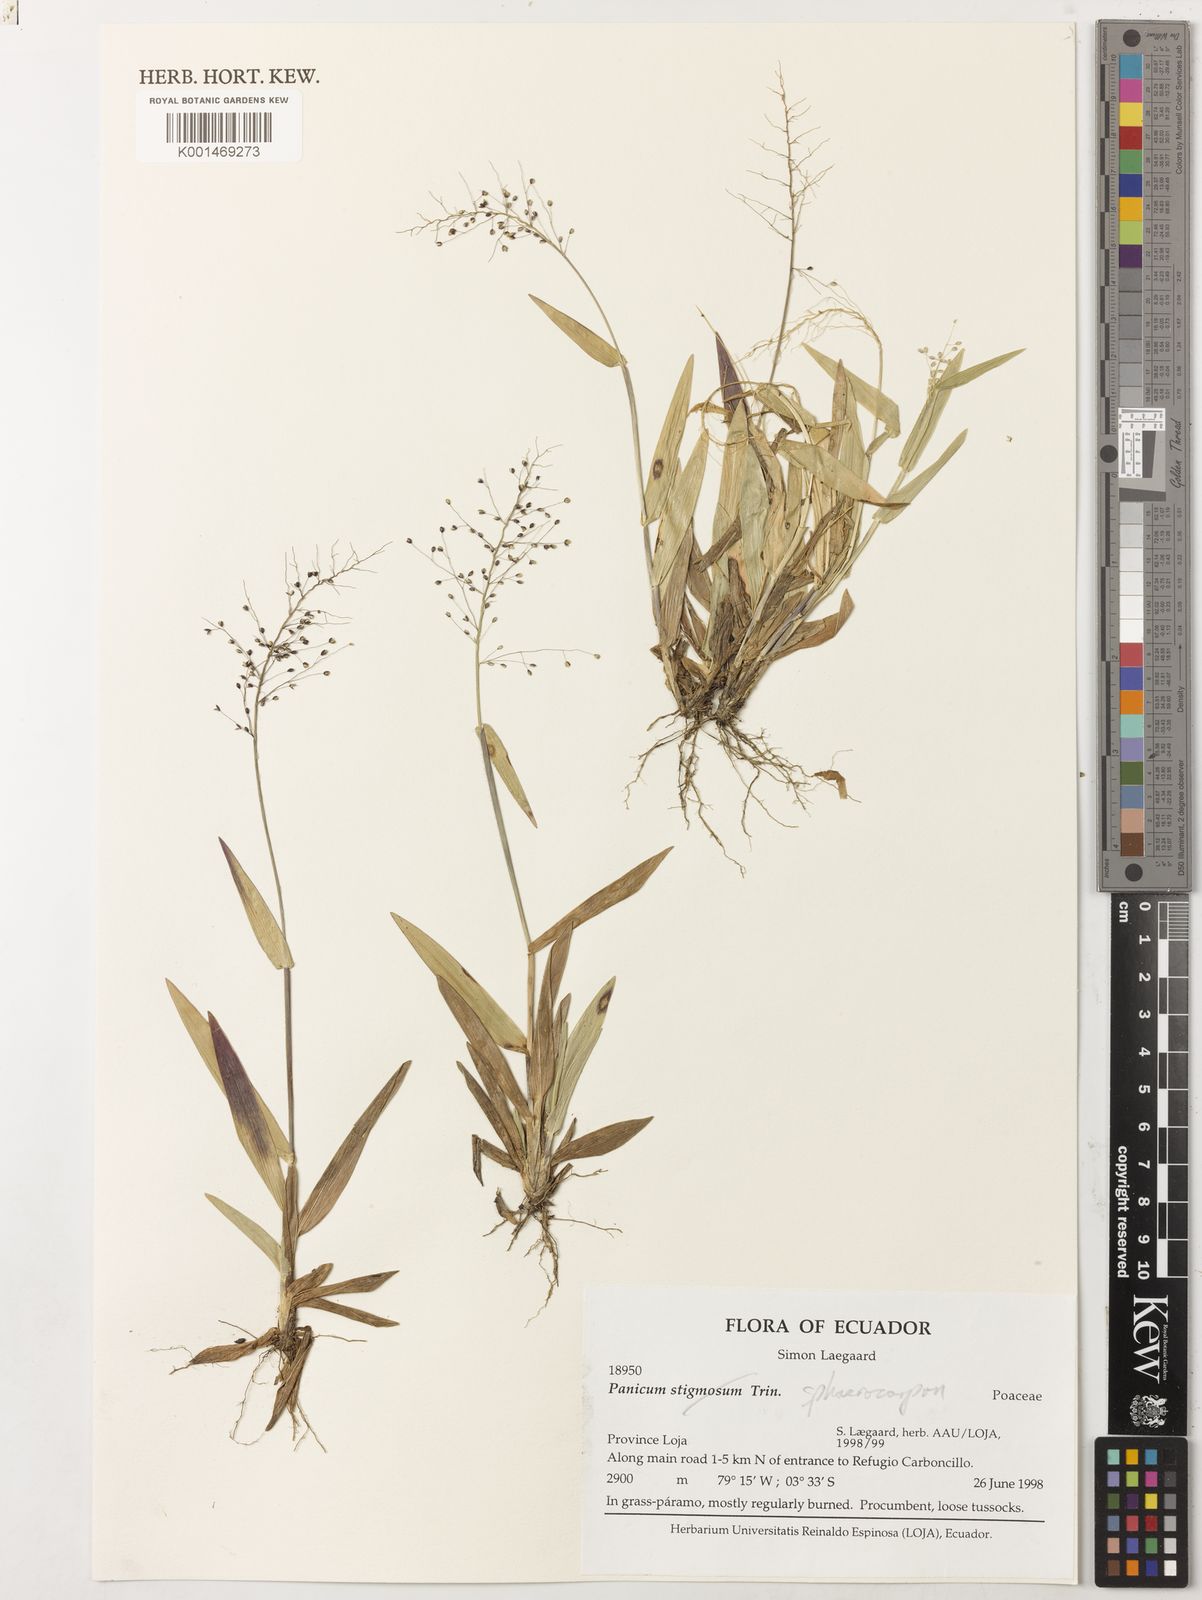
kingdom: Plantae
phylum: Tracheophyta
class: Liliopsida
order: Poales
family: Poaceae
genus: Dichanthelium
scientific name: Dichanthelium sphaerocarpon
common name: Round-fruited panicgrass
